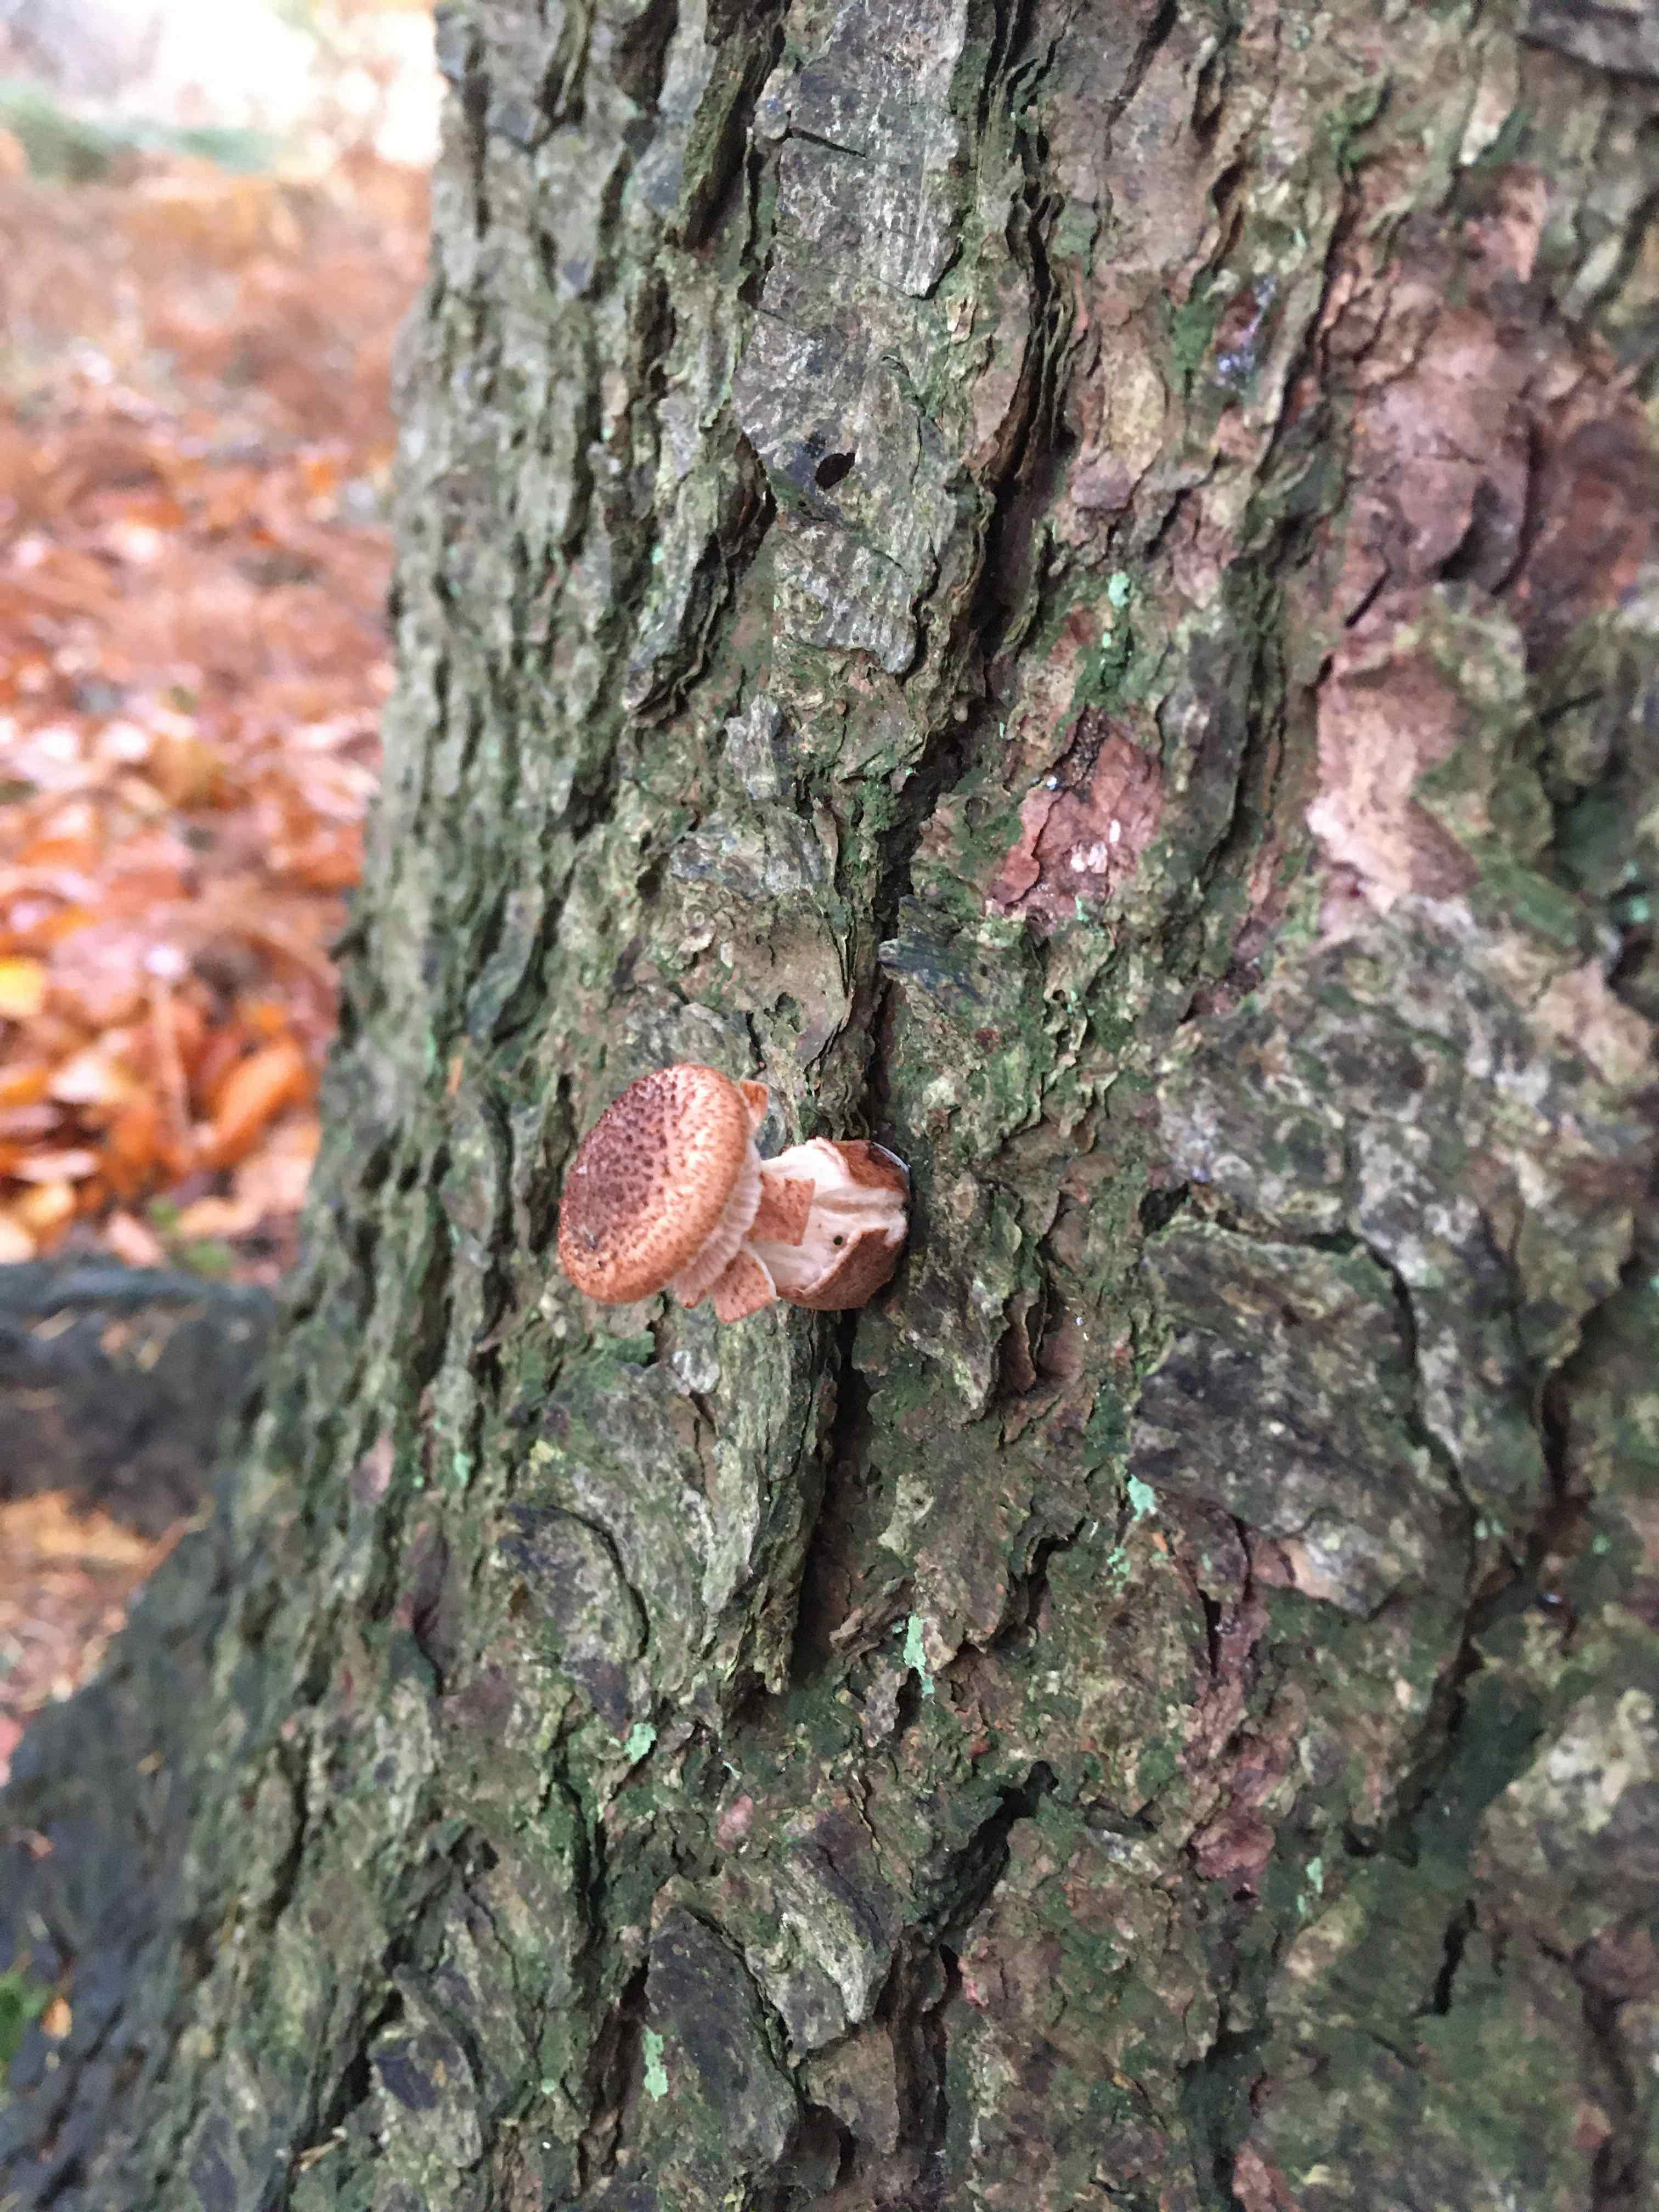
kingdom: Fungi
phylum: Basidiomycota
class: Agaricomycetes
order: Agaricales
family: Physalacriaceae
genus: Armillaria
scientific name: Armillaria ostoyae
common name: mørk honningsvamp
